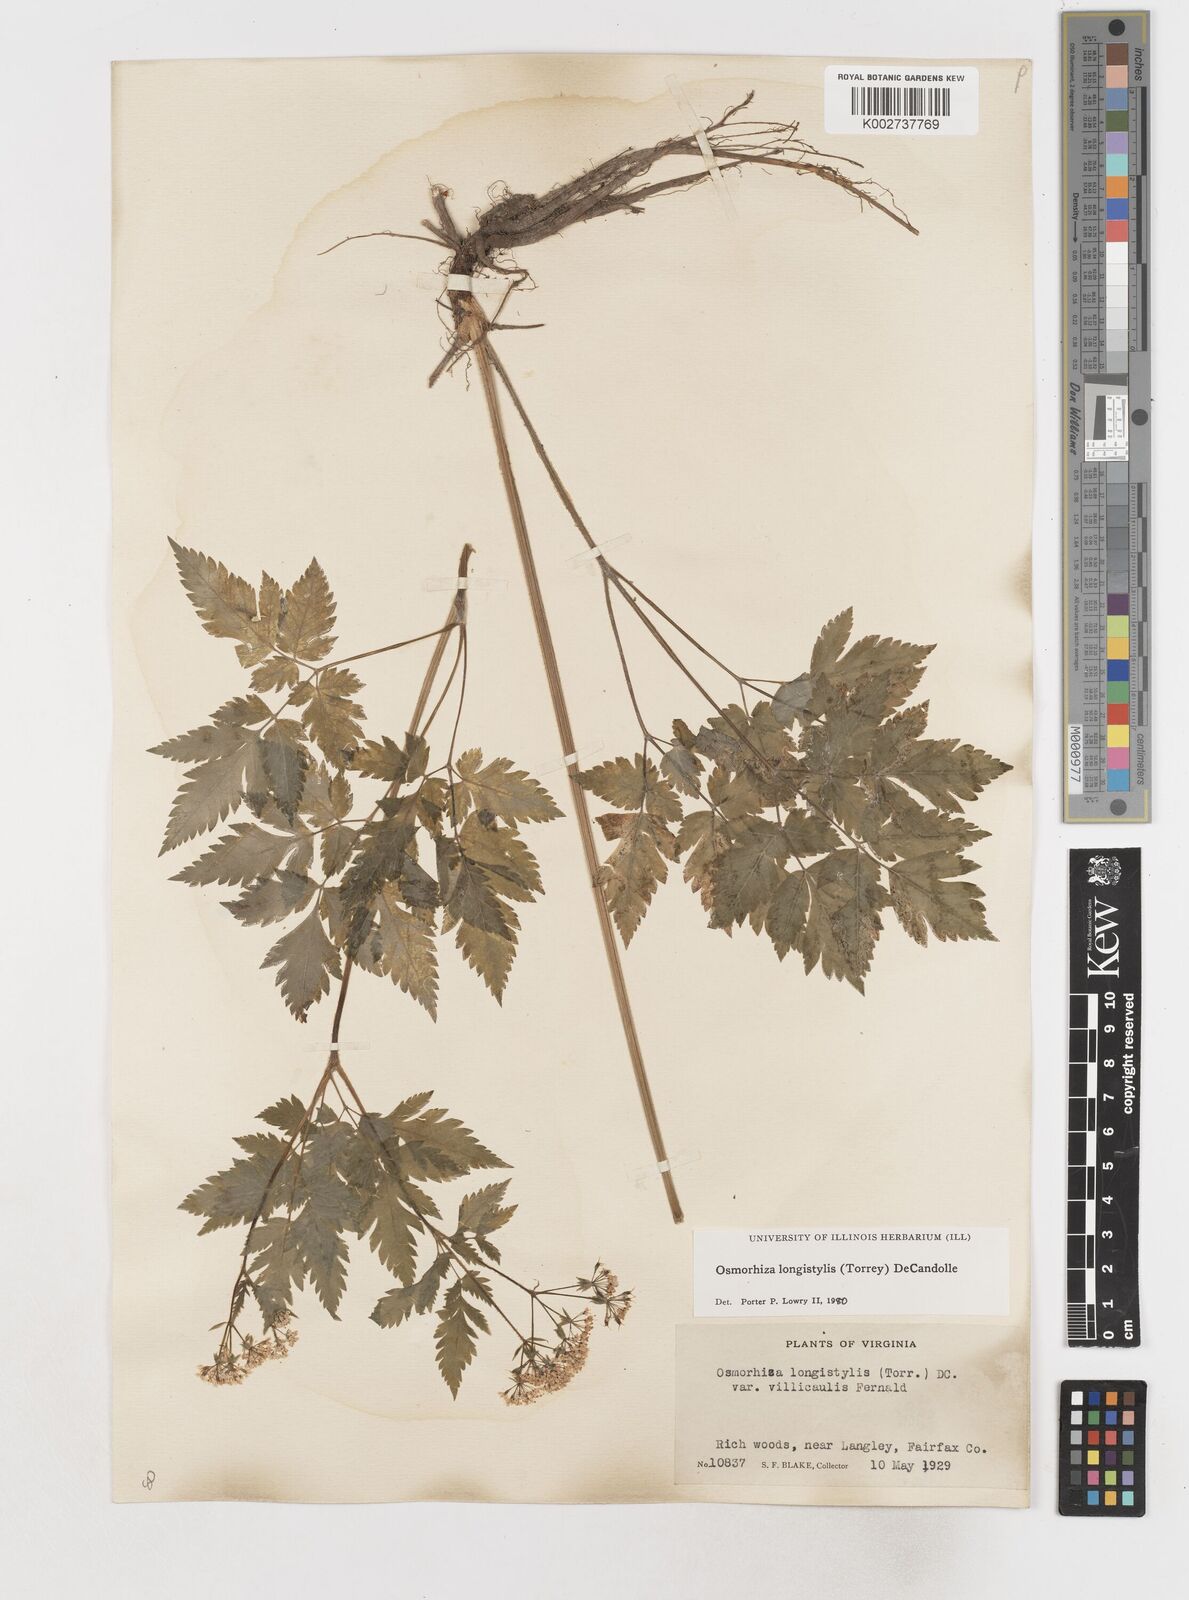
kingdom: Plantae
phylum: Tracheophyta
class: Magnoliopsida
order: Apiales
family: Apiaceae
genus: Osmorhiza
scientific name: Osmorhiza longistylis
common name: Smooth sweet cicely
